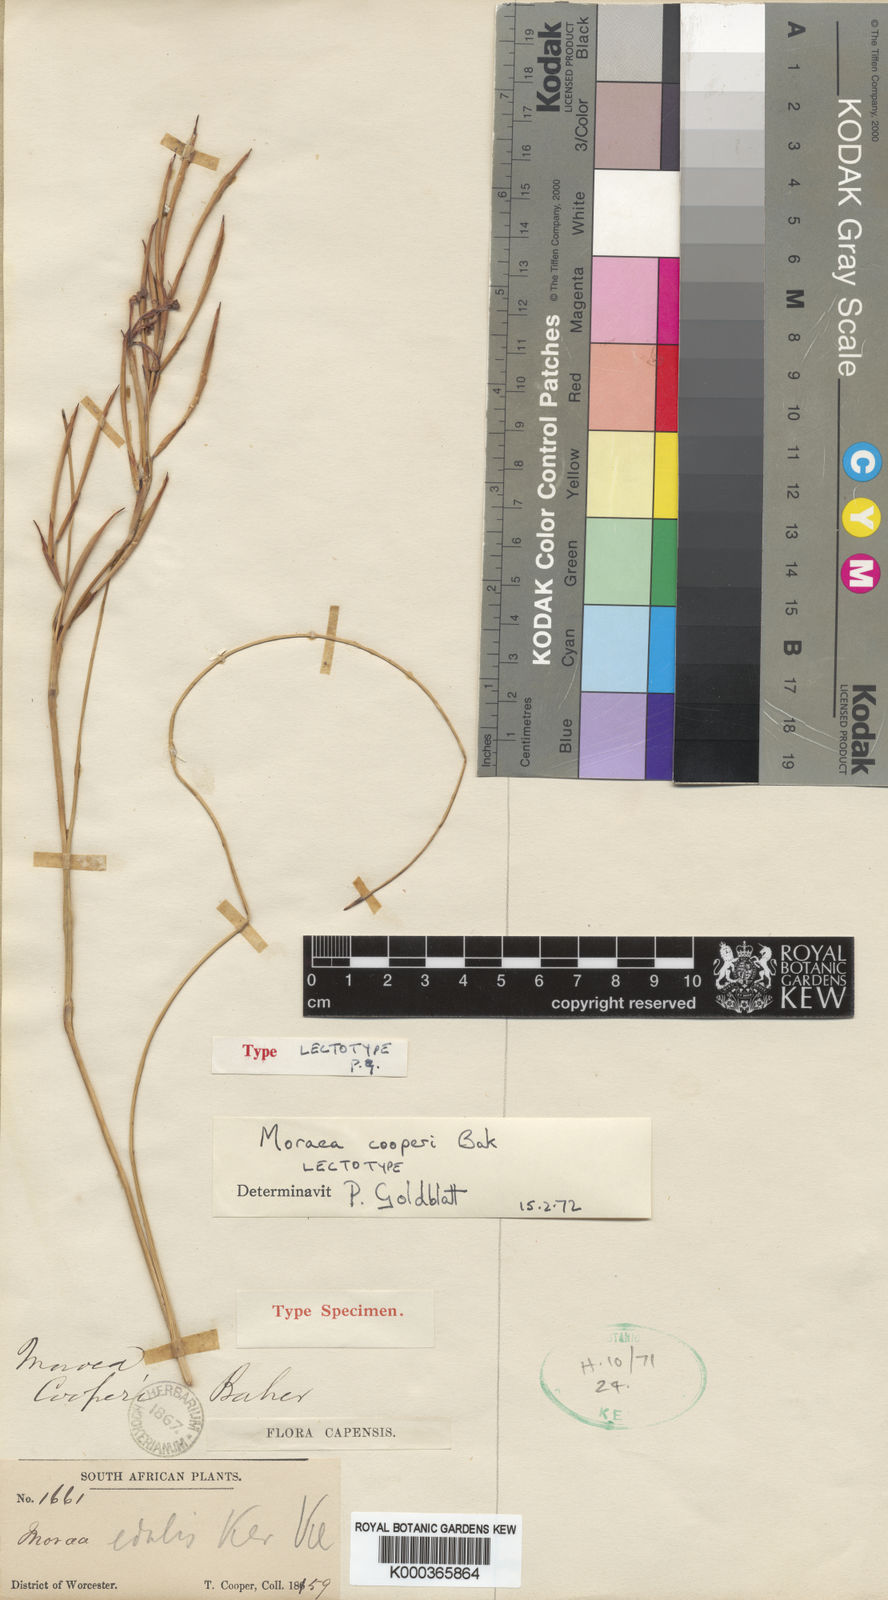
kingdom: Plantae
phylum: Tracheophyta
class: Liliopsida
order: Asparagales
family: Iridaceae
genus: Moraea
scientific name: Moraea cooperi
